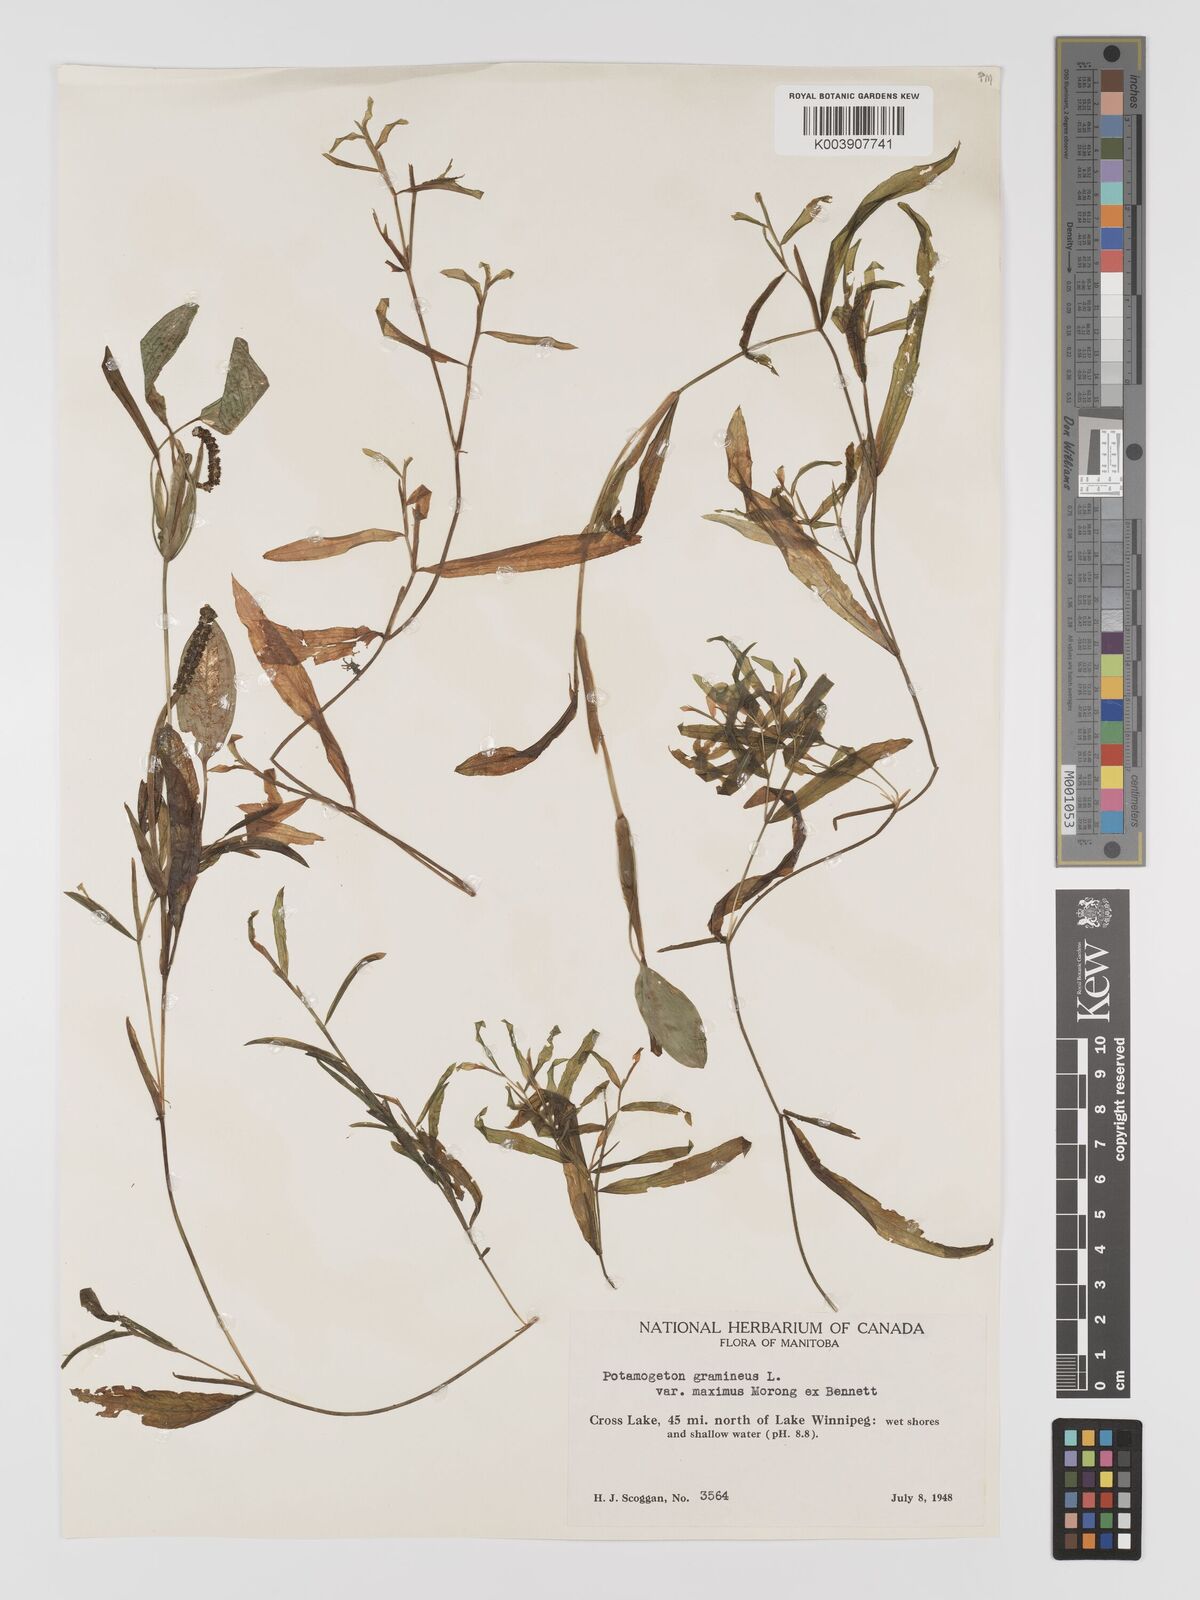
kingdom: Plantae
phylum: Tracheophyta
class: Liliopsida
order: Alismatales
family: Potamogetonaceae
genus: Potamogeton
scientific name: Potamogeton gramineus
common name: Various-leaved pondweed
